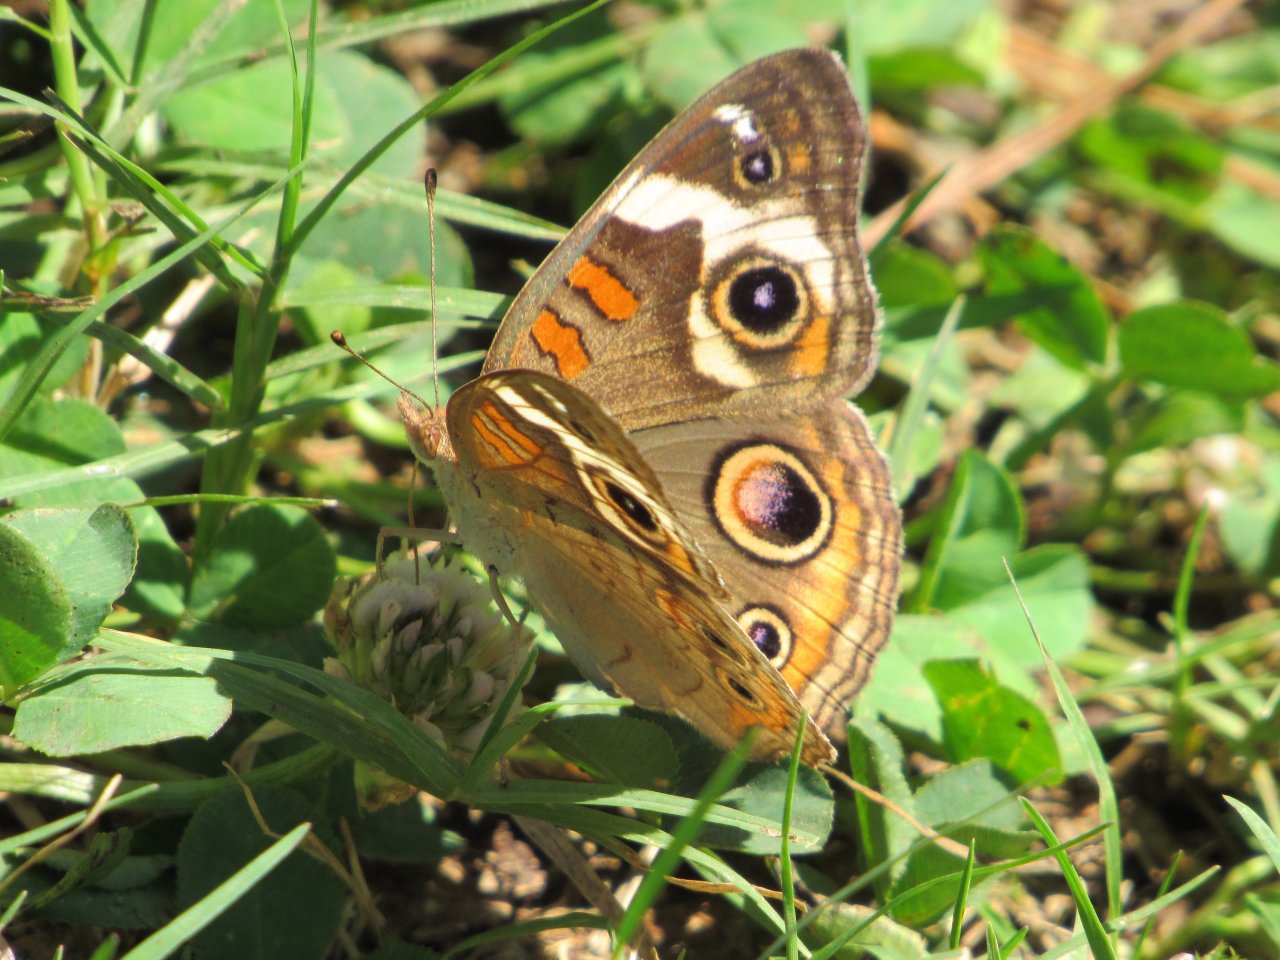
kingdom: Animalia
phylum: Arthropoda
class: Insecta
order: Lepidoptera
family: Nymphalidae
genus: Junonia
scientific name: Junonia coenia
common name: Common Buckeye
